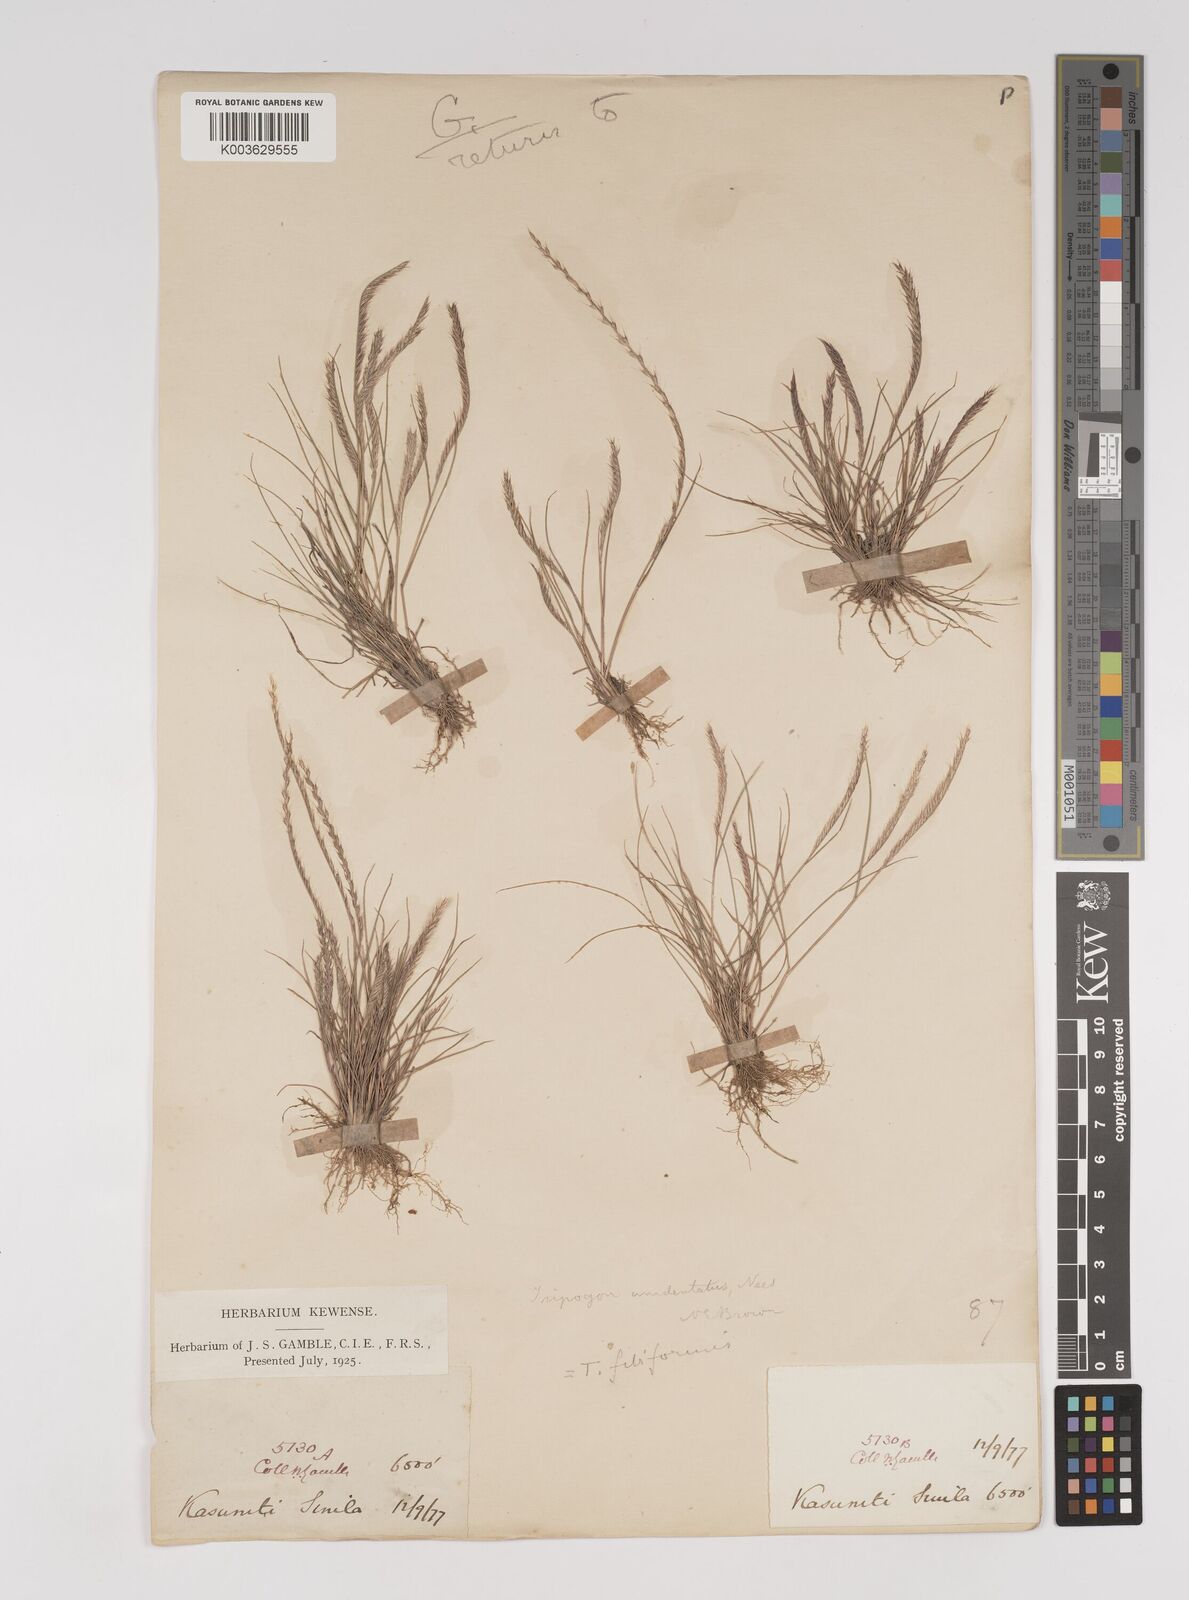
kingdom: Plantae
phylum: Tracheophyta
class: Liliopsida
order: Poales
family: Poaceae
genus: Tripogon
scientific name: Tripogon filiformis
